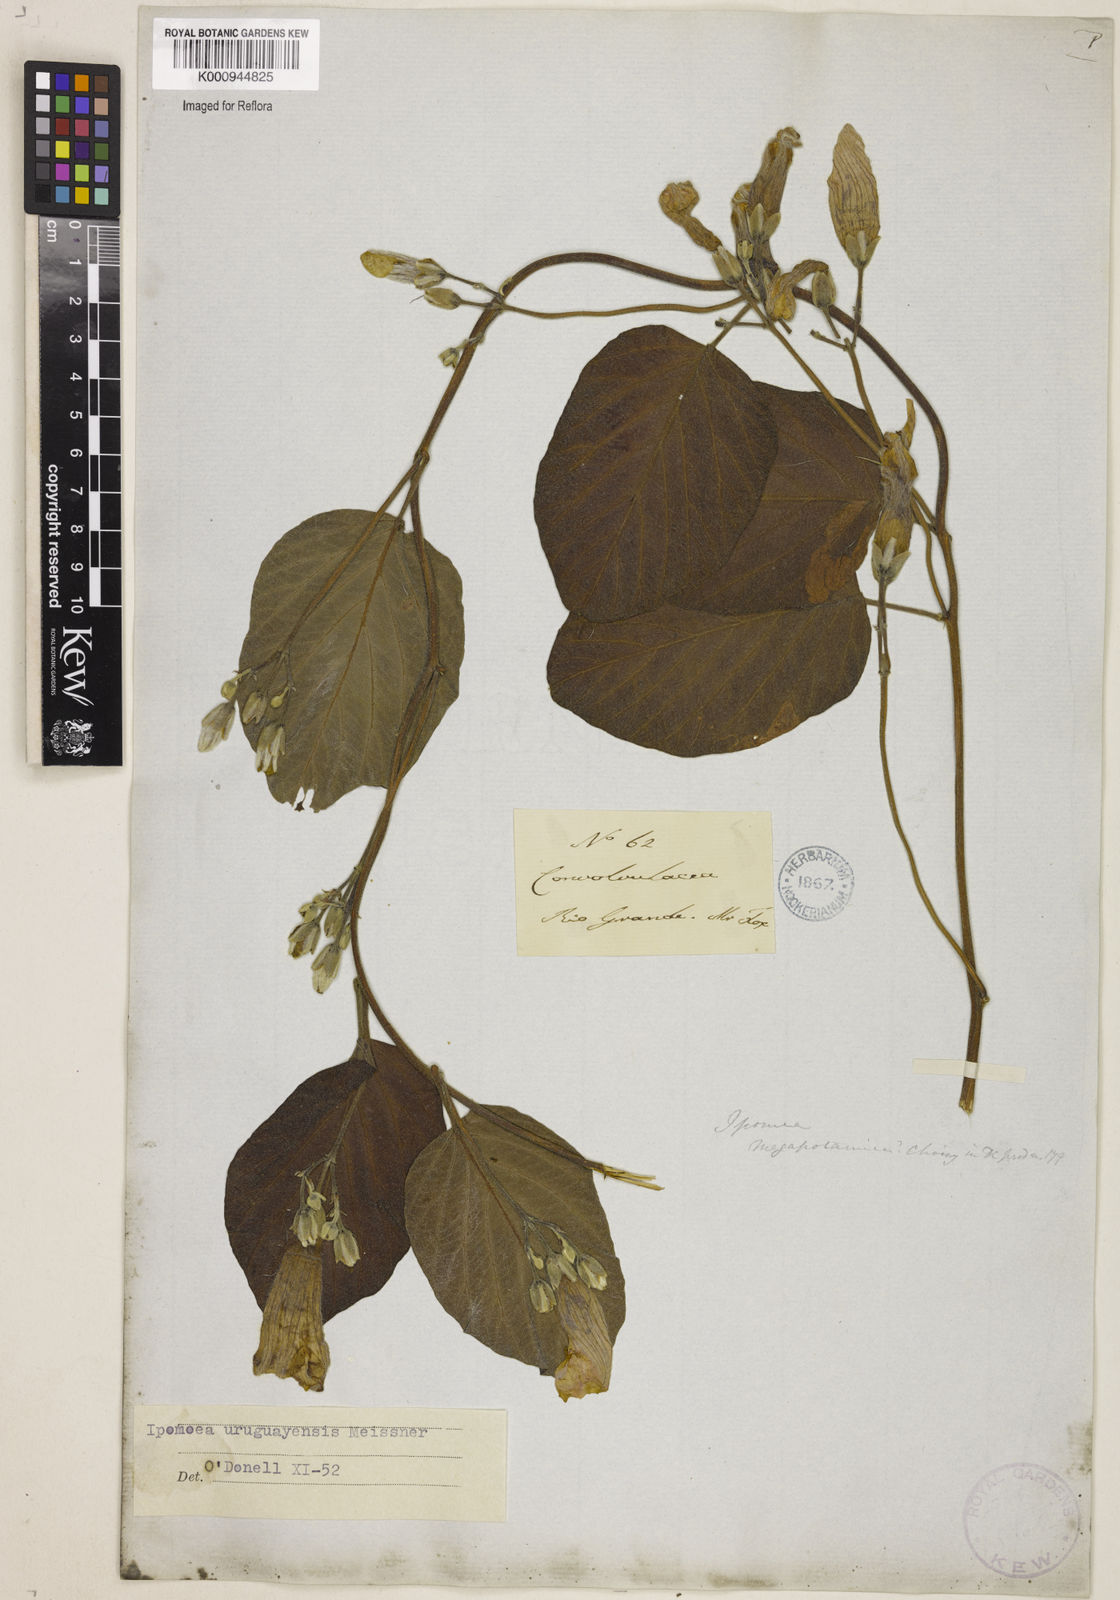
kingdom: Plantae
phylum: Tracheophyta
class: Magnoliopsida
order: Solanales
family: Convolvulaceae
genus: Ipomoea
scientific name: Ipomoea uruguayensis
